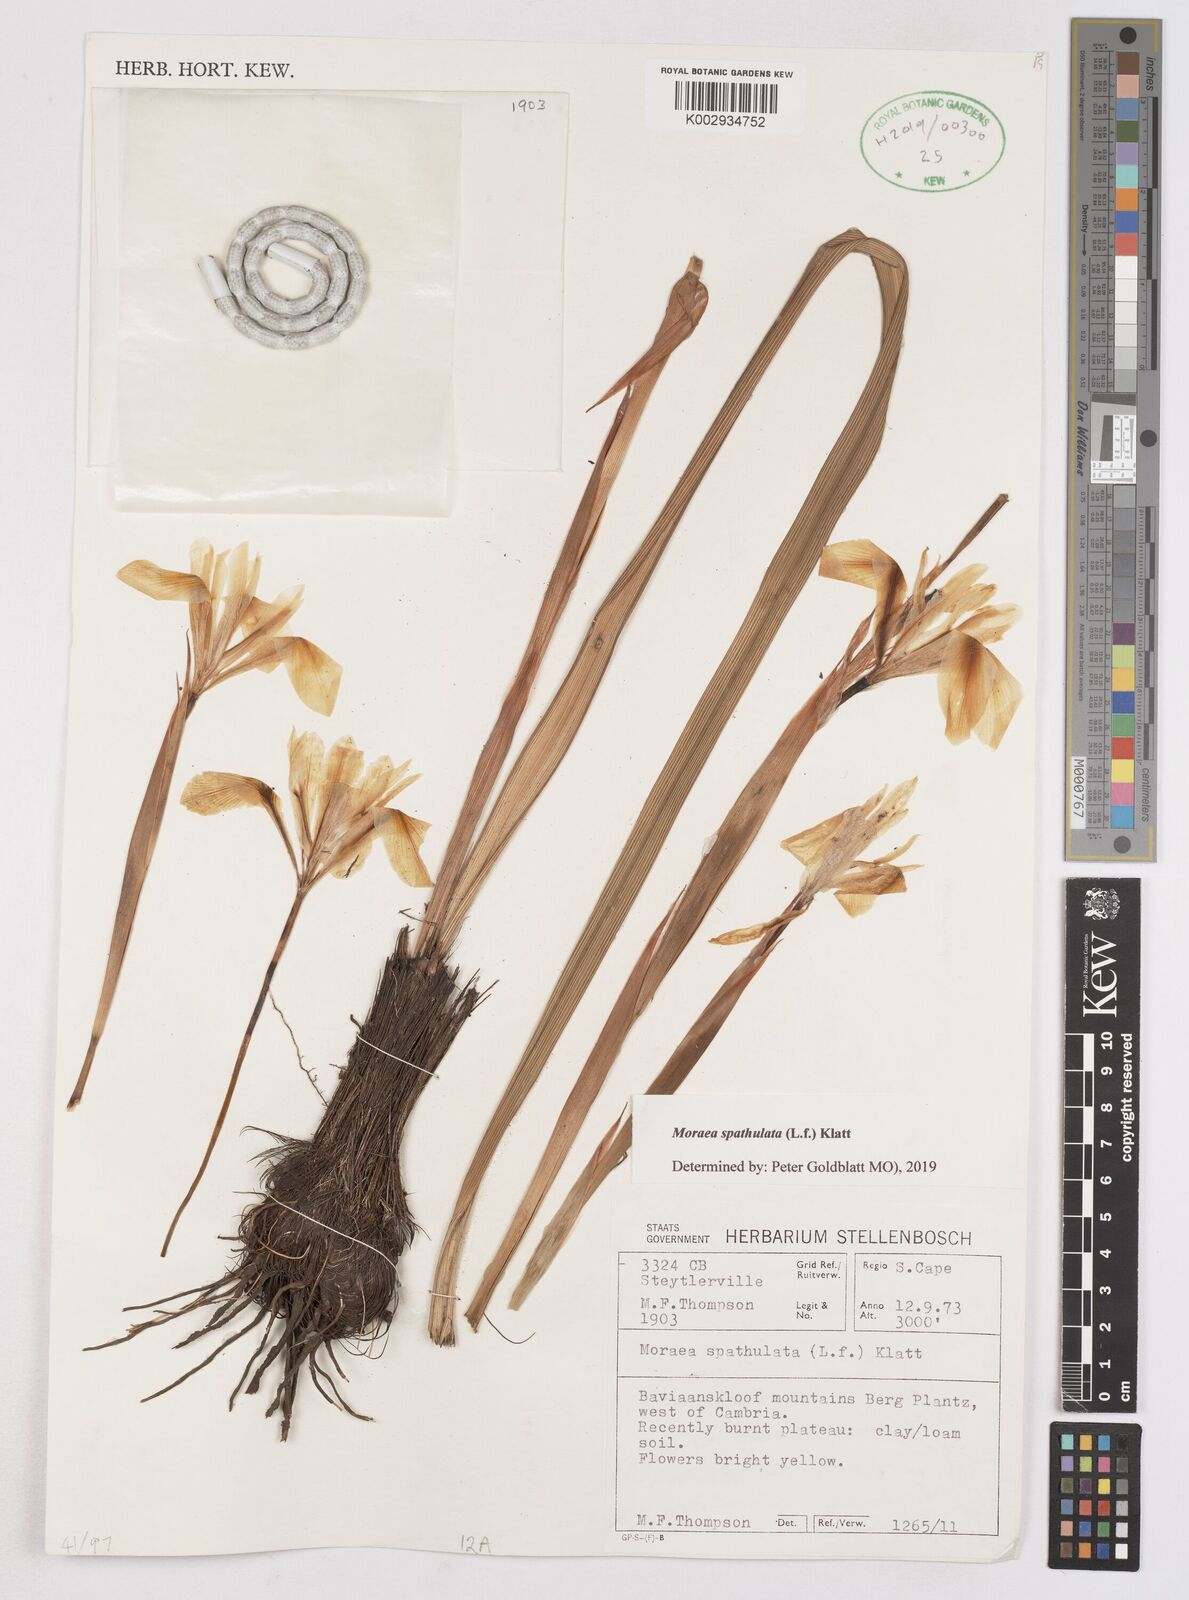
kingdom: Plantae
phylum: Tracheophyta
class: Liliopsida
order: Asparagales
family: Iridaceae
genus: Moraea
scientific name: Moraea spathulata
